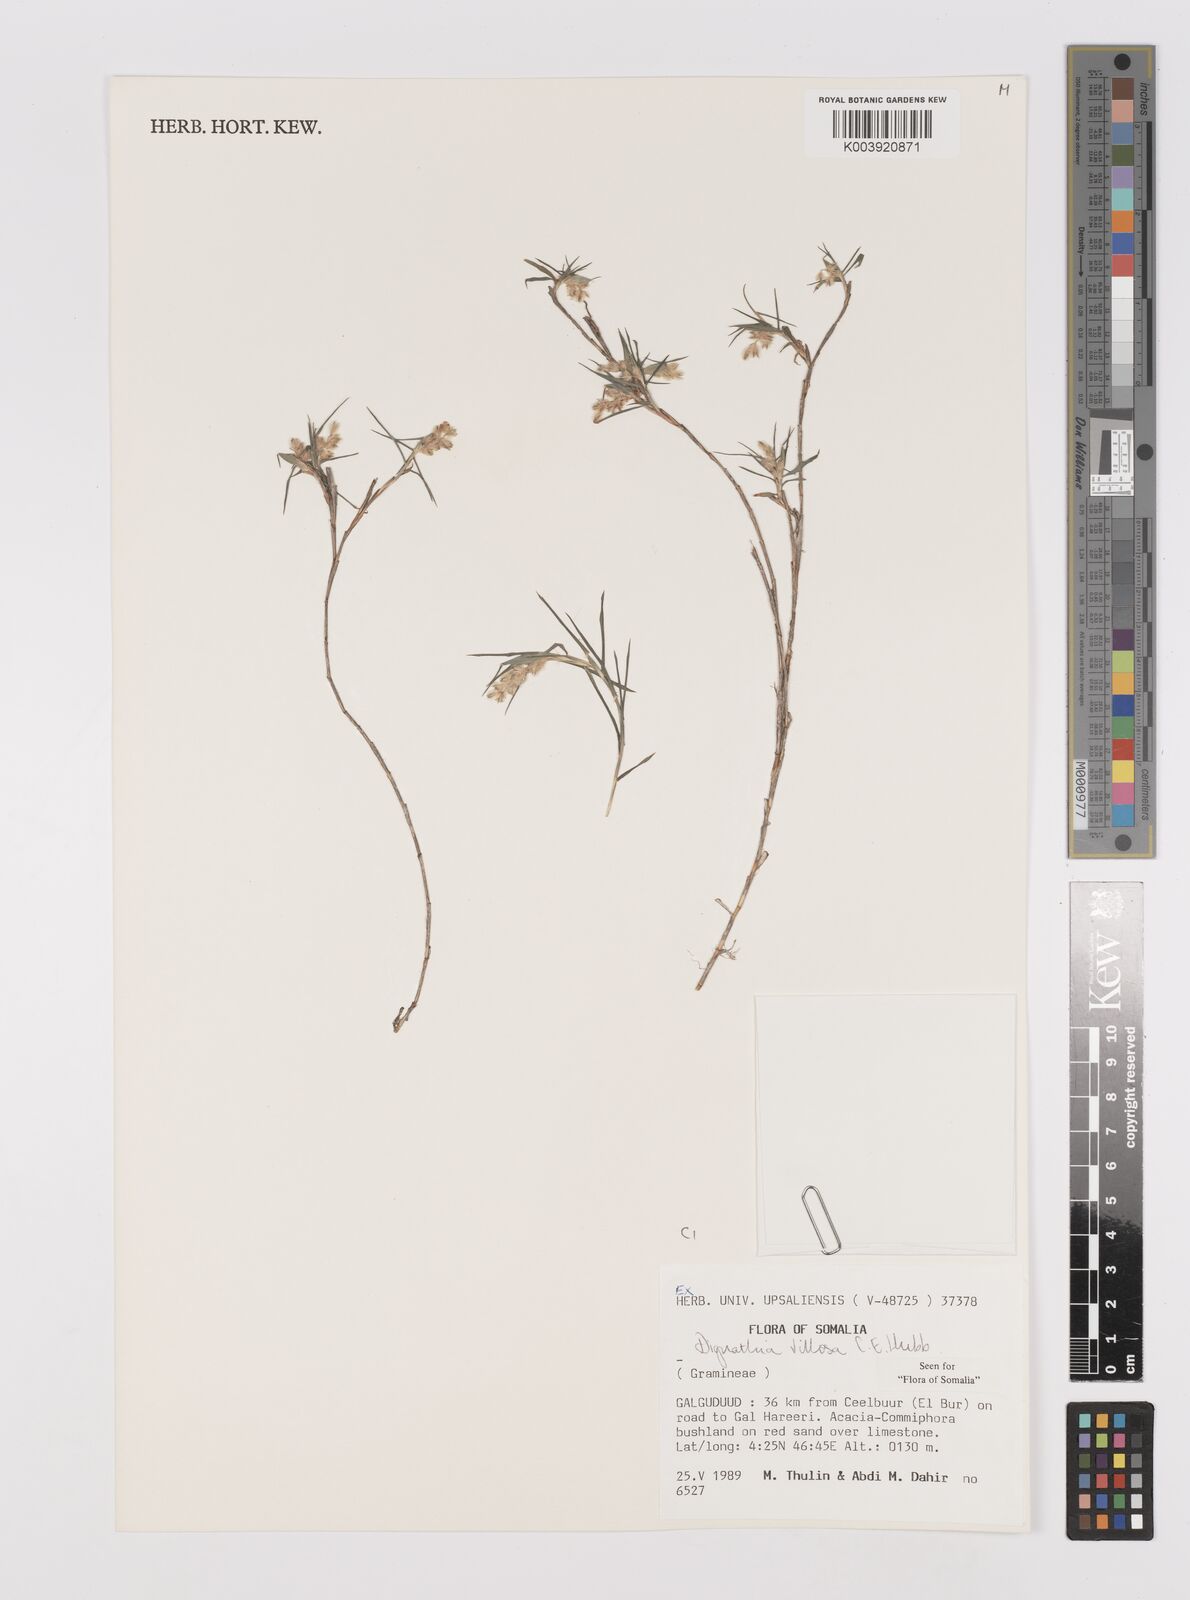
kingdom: Plantae
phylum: Tracheophyta
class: Liliopsida
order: Poales
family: Poaceae
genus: Dignathia
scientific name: Dignathia villosa
